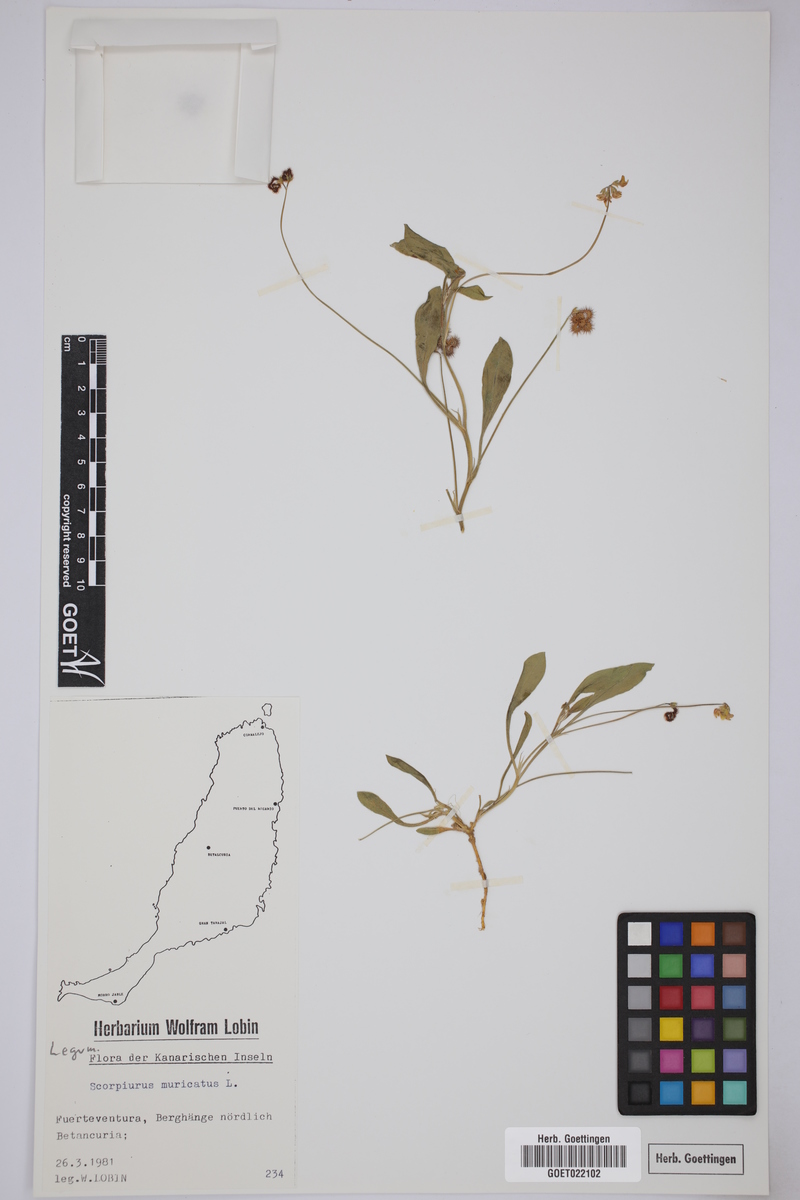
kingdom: Plantae
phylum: Tracheophyta
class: Magnoliopsida
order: Fabales
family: Fabaceae
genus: Scorpiurus
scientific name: Scorpiurus muricatus
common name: Caterpillar-plant
